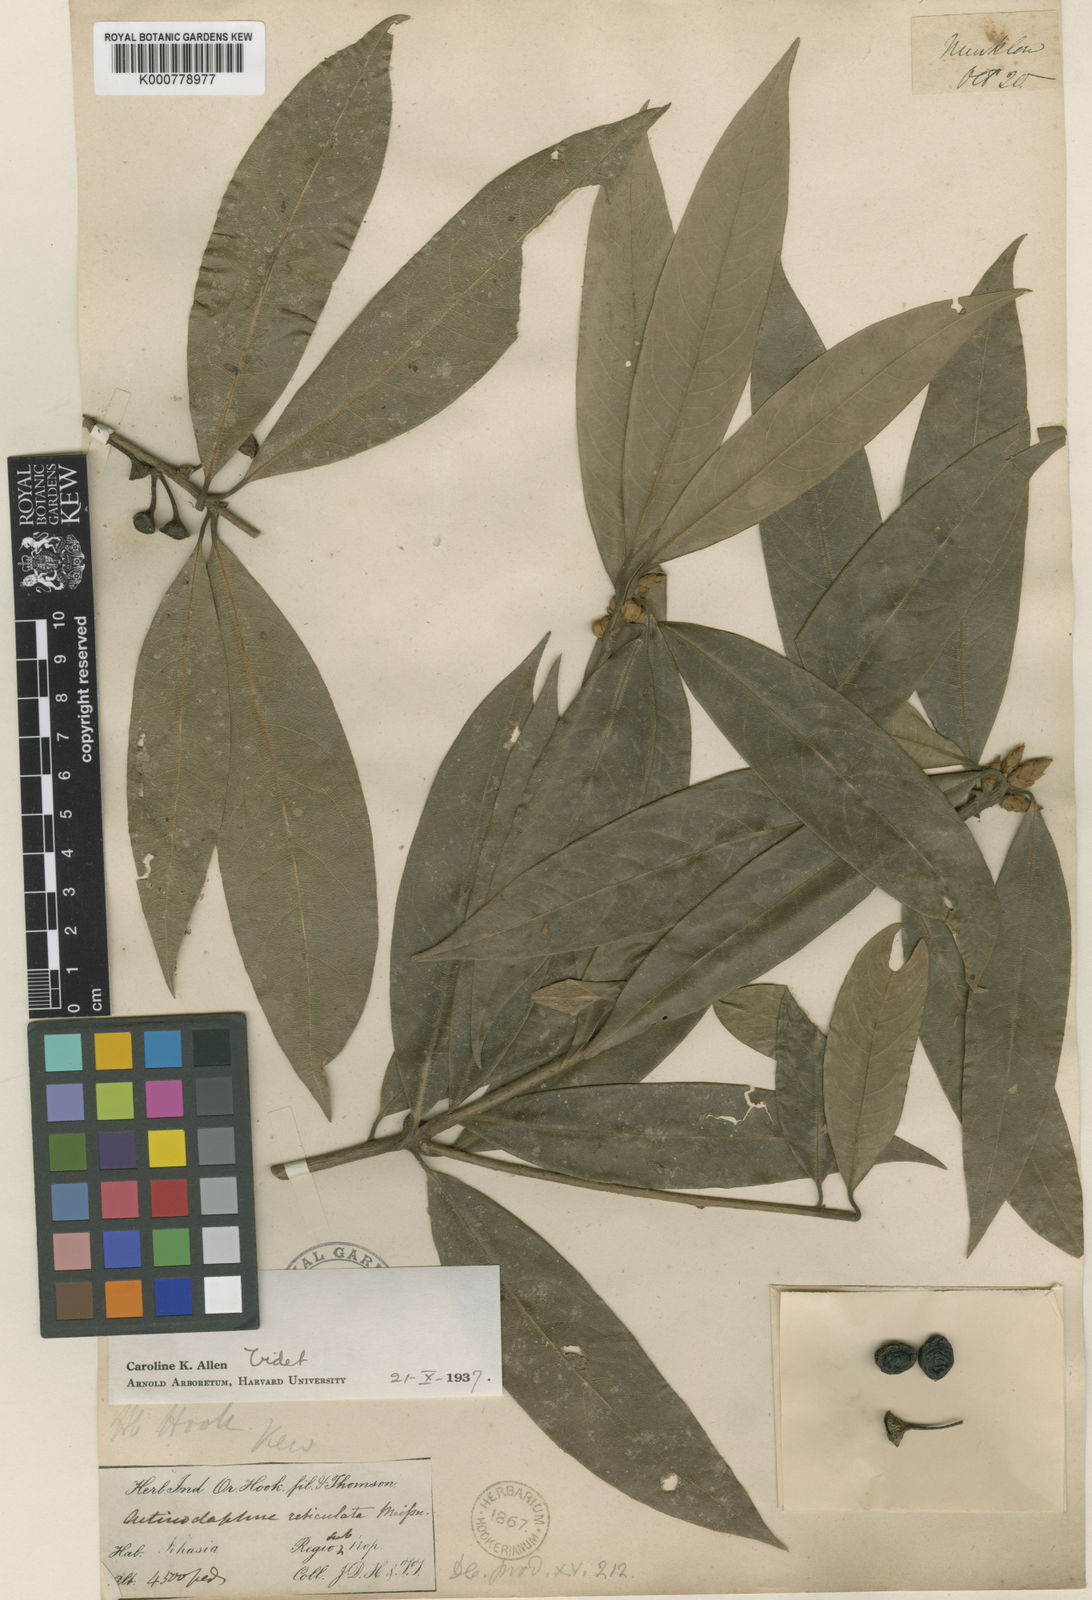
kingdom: Plantae
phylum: Tracheophyta
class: Magnoliopsida
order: Laurales
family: Lauraceae
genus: Actinodaphne
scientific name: Actinodaphne reticulata
